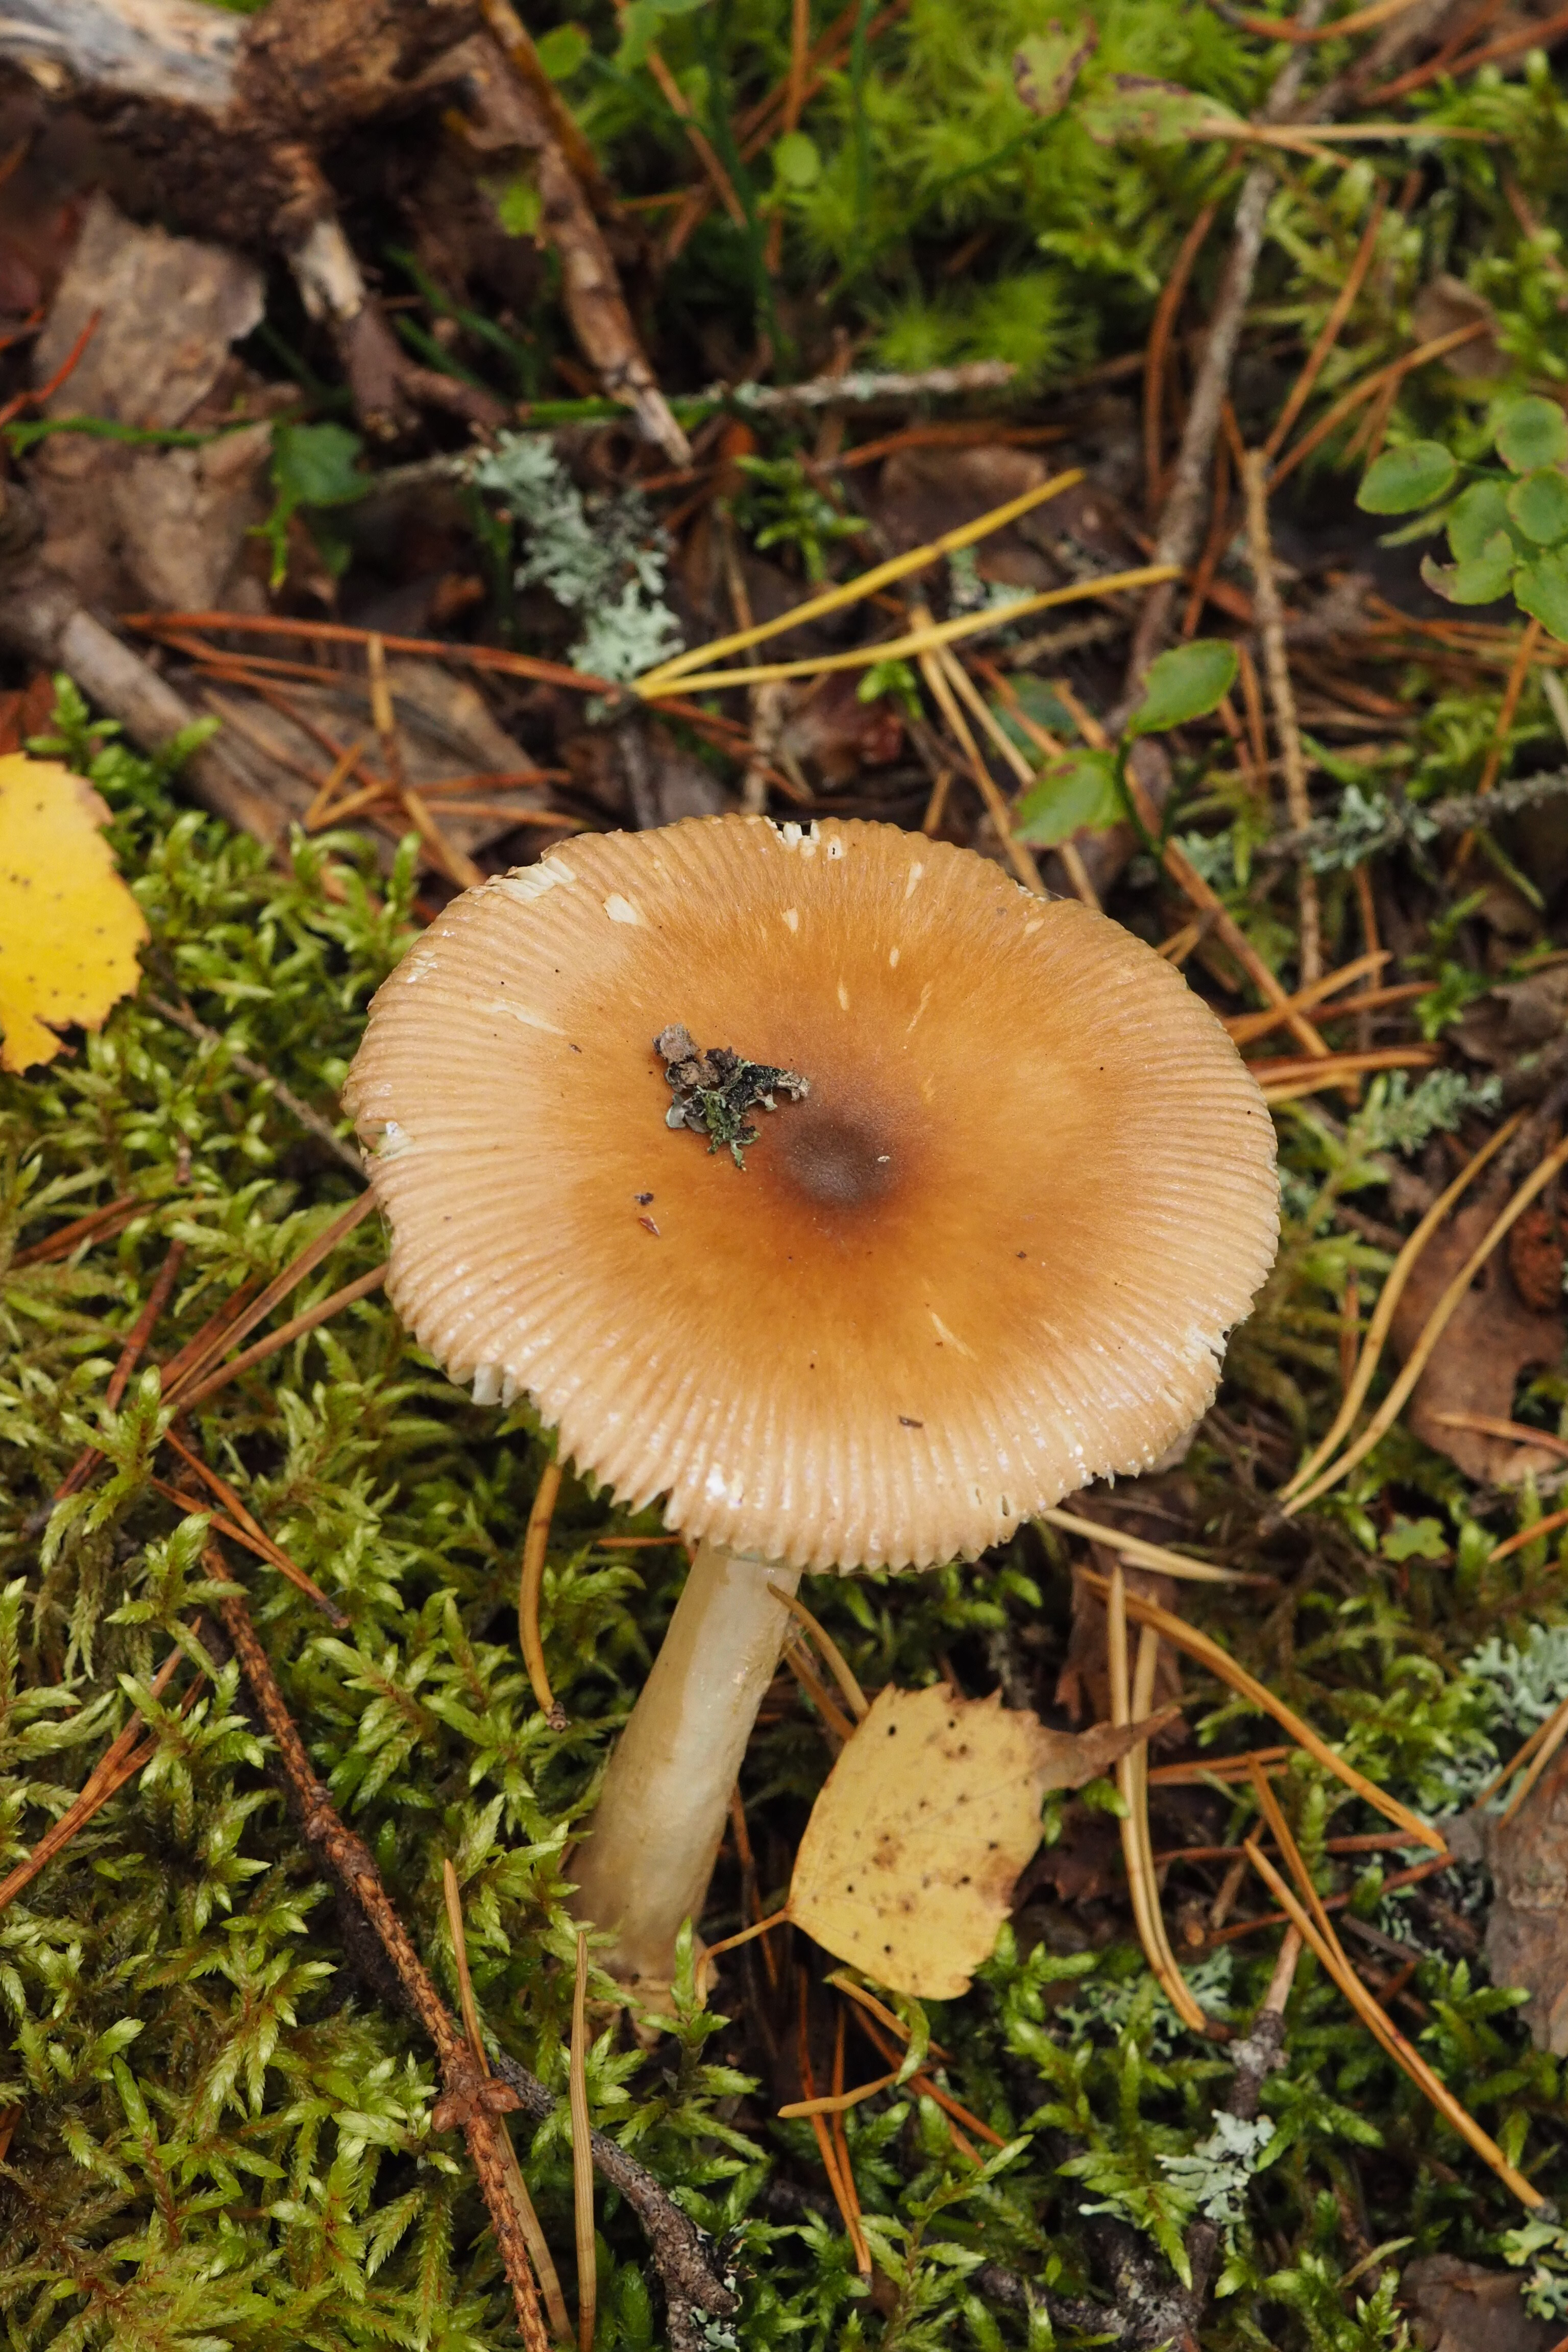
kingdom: Fungi
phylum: Basidiomycota
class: Agaricomycetes
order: Agaricales
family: Amanitaceae
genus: Amanita
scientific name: Amanita fulva
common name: Tawny grisette
